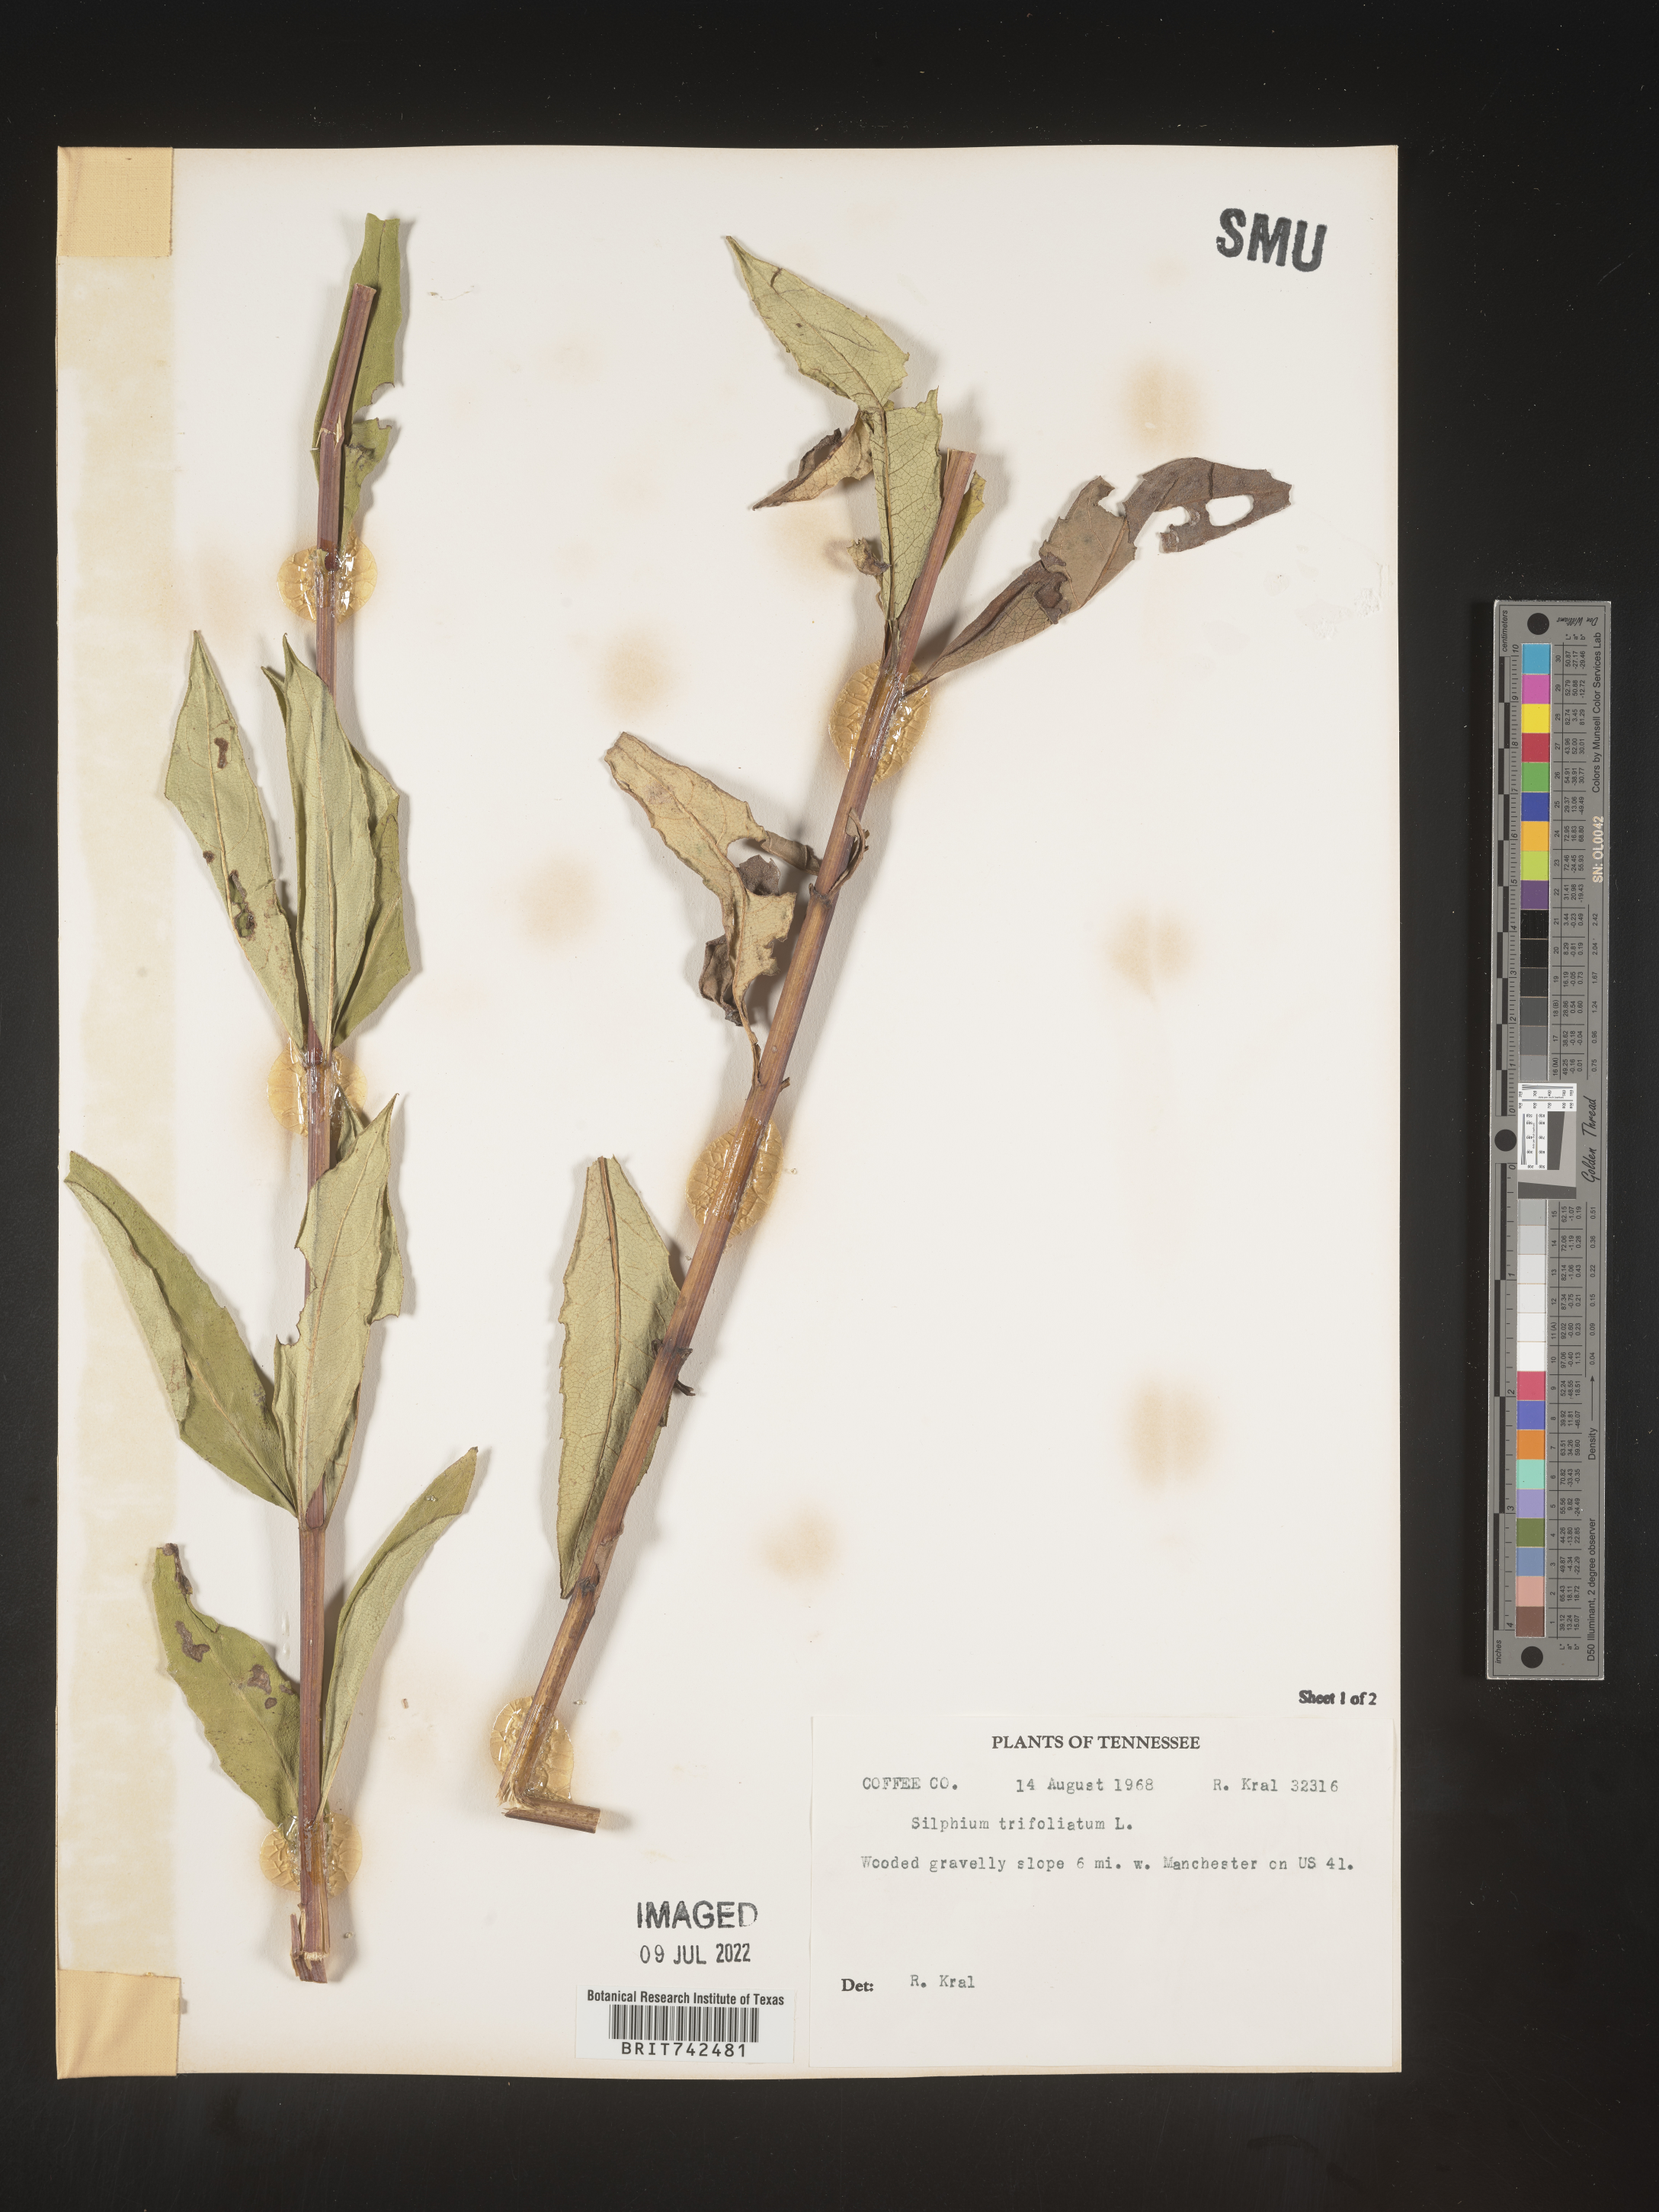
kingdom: Plantae
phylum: Tracheophyta
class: Magnoliopsida
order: Asterales
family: Asteraceae
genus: Silphium
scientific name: Silphium asteriscus
